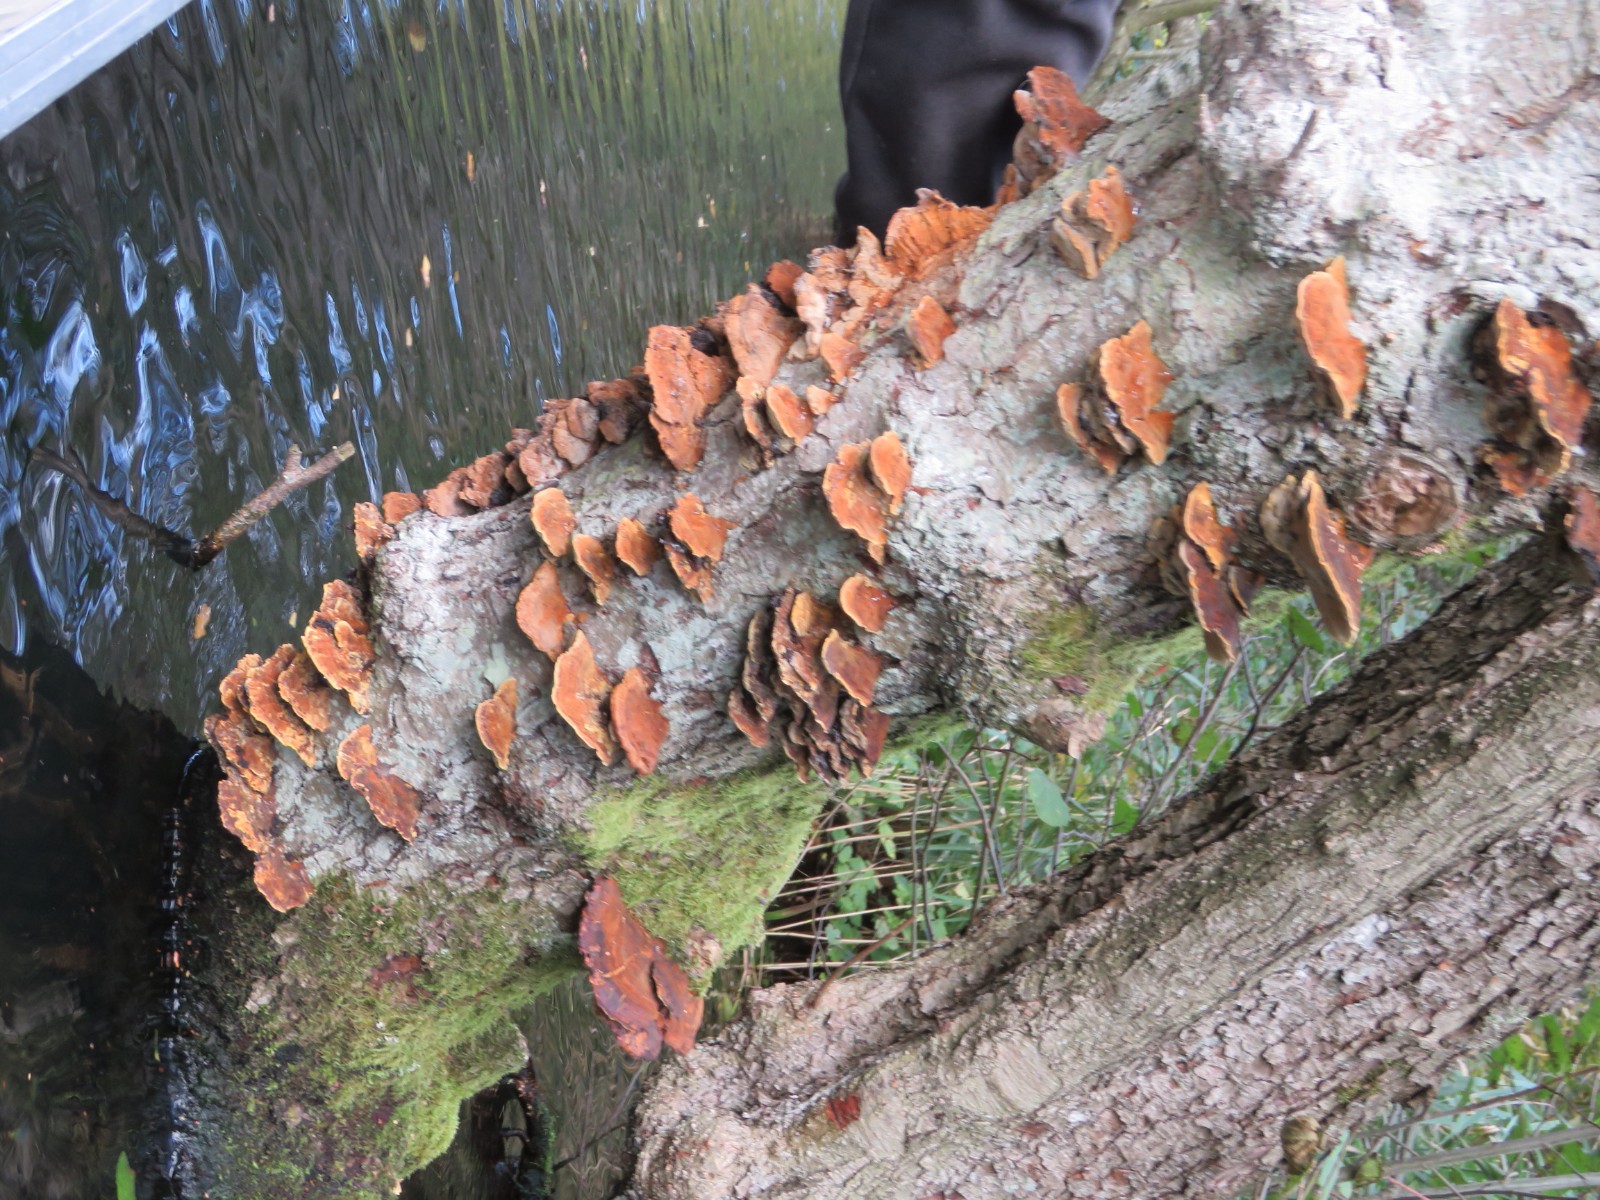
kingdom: Fungi
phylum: Basidiomycota
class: Agaricomycetes
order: Hymenochaetales
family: Hymenochaetaceae
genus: Xanthoporia
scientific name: Xanthoporia radiata
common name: elle-spejlporesvamp
